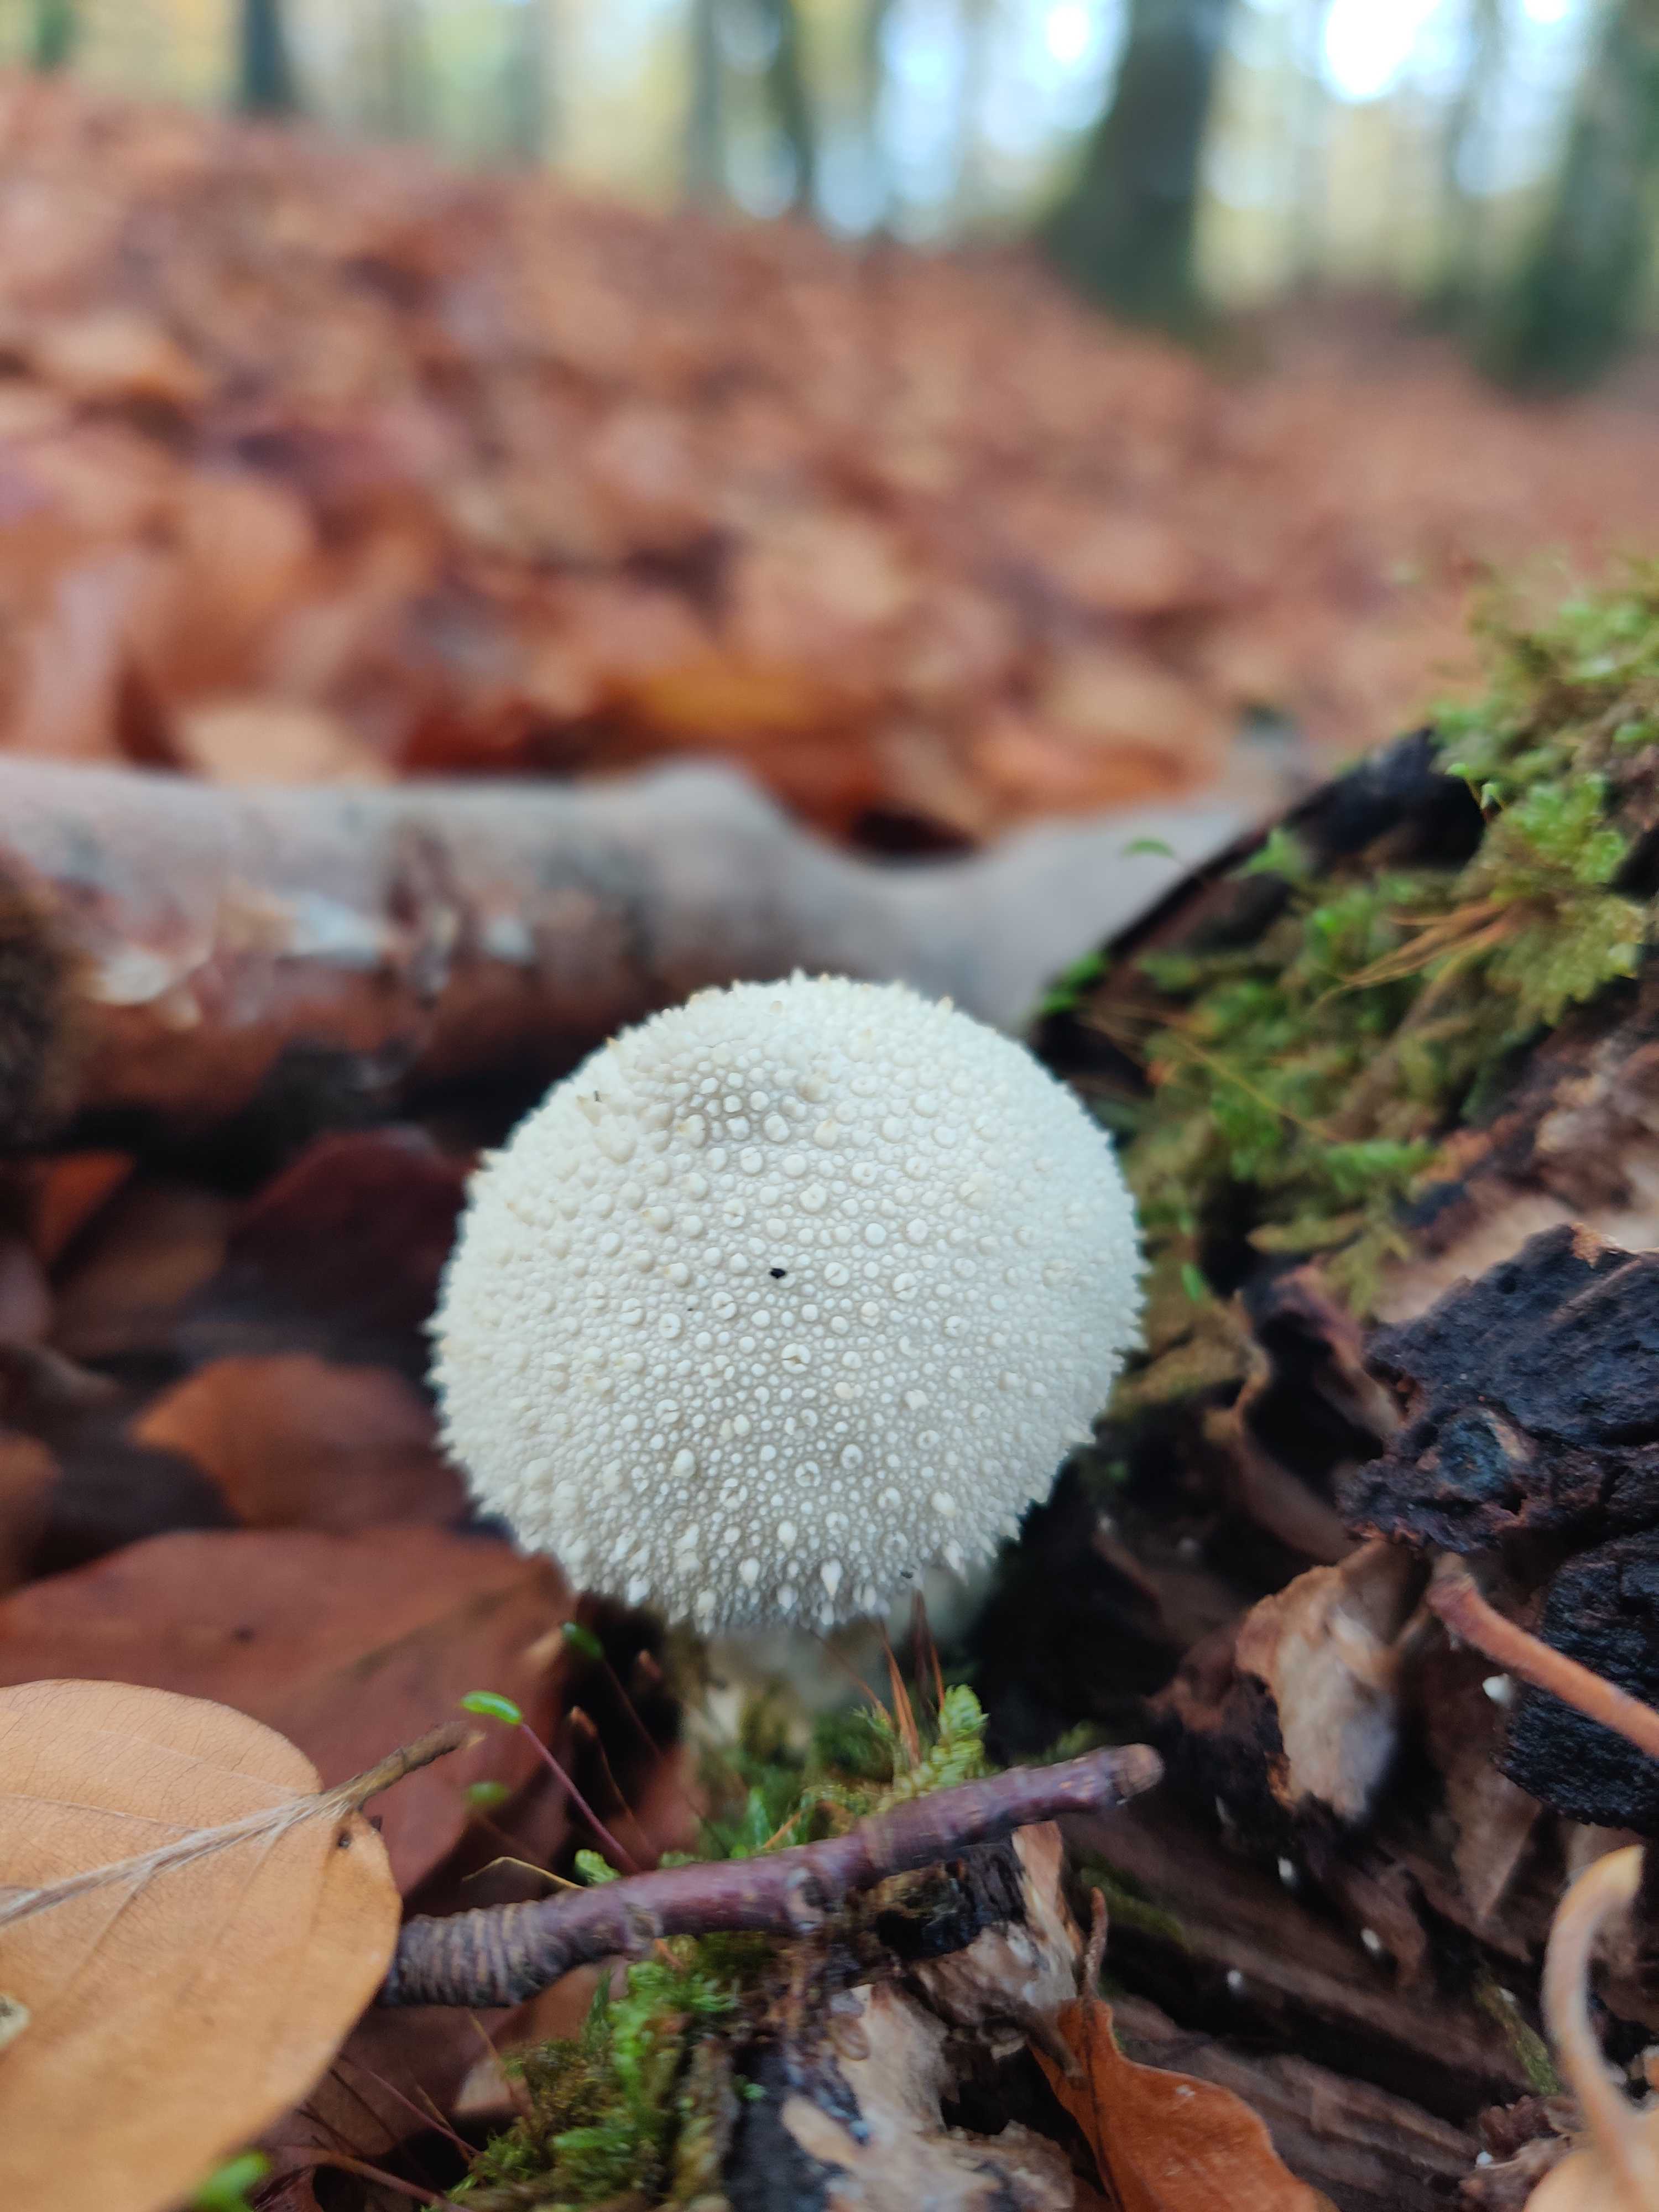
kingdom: Fungi
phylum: Basidiomycota
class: Agaricomycetes
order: Agaricales
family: Lycoperdaceae
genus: Lycoperdon
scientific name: Lycoperdon perlatum
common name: krystal-støvbold
